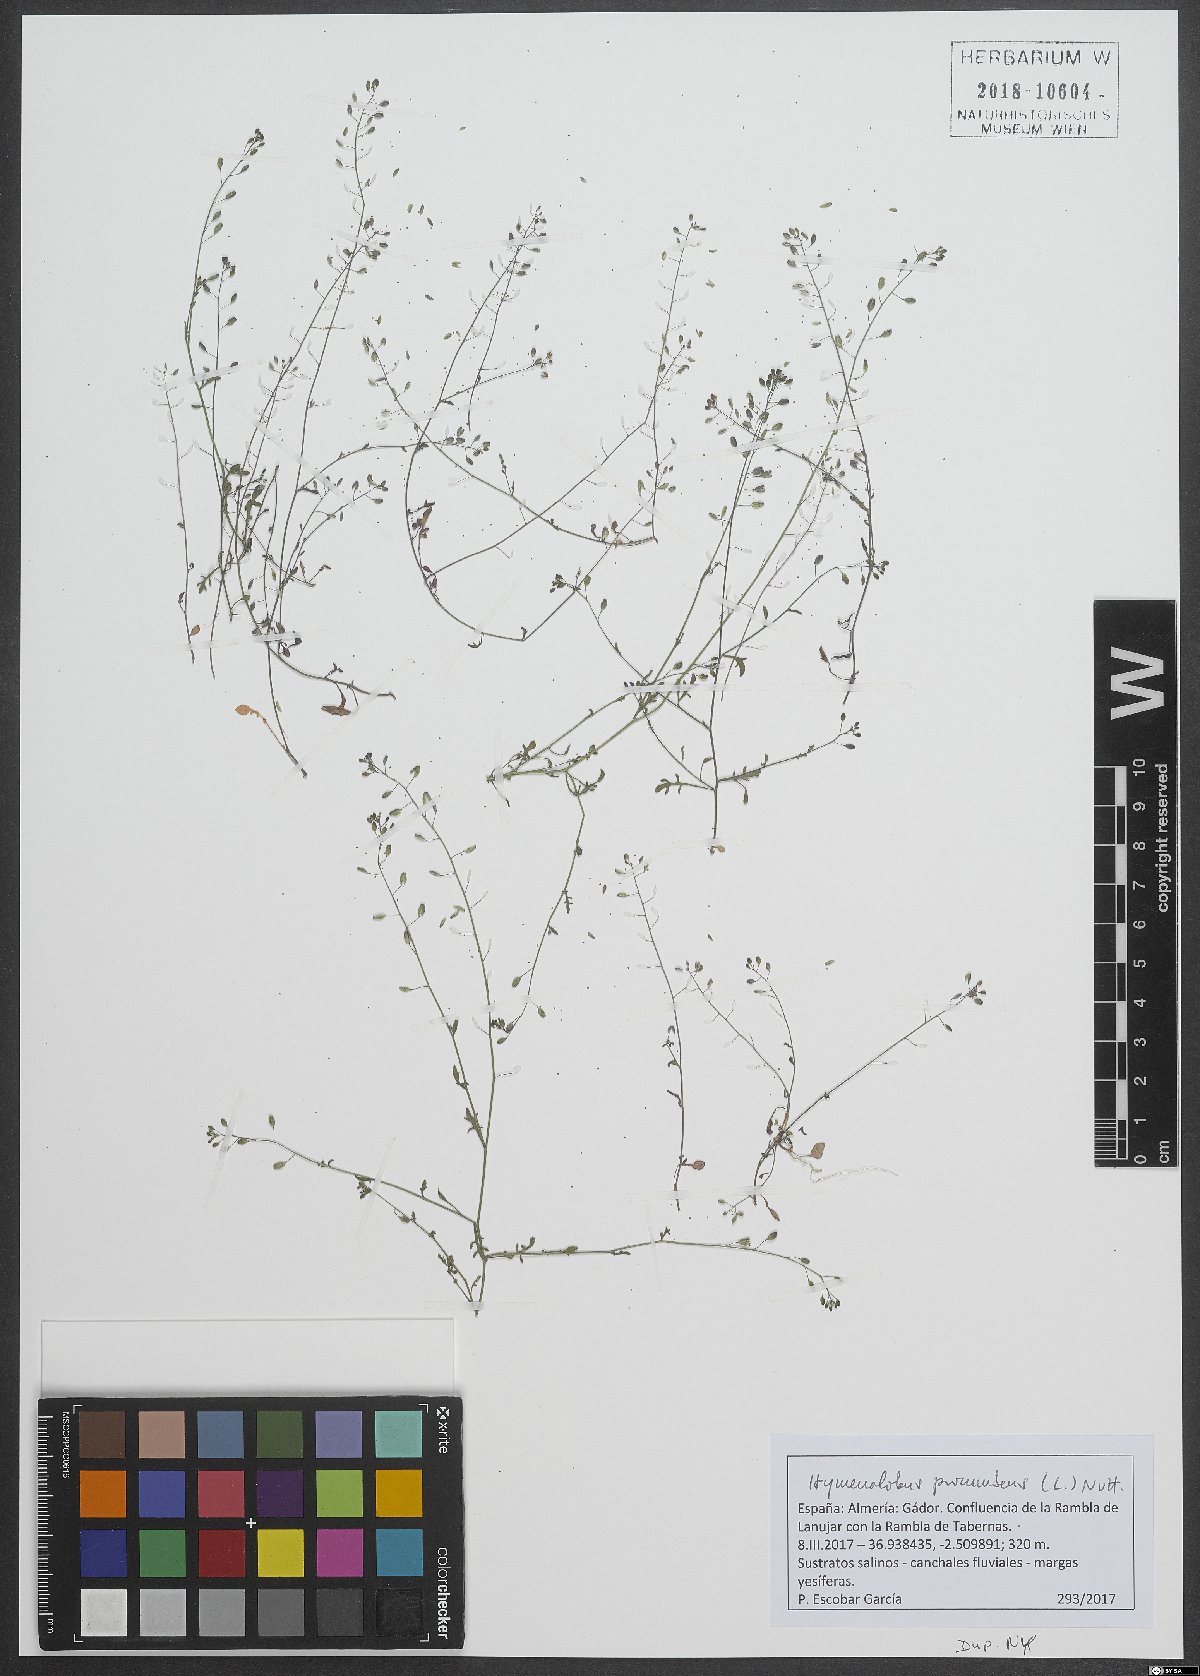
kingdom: Plantae
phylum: Tracheophyta
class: Magnoliopsida
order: Brassicales
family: Brassicaceae
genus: Hornungia
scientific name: Hornungia procumbens
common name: Oval purse
